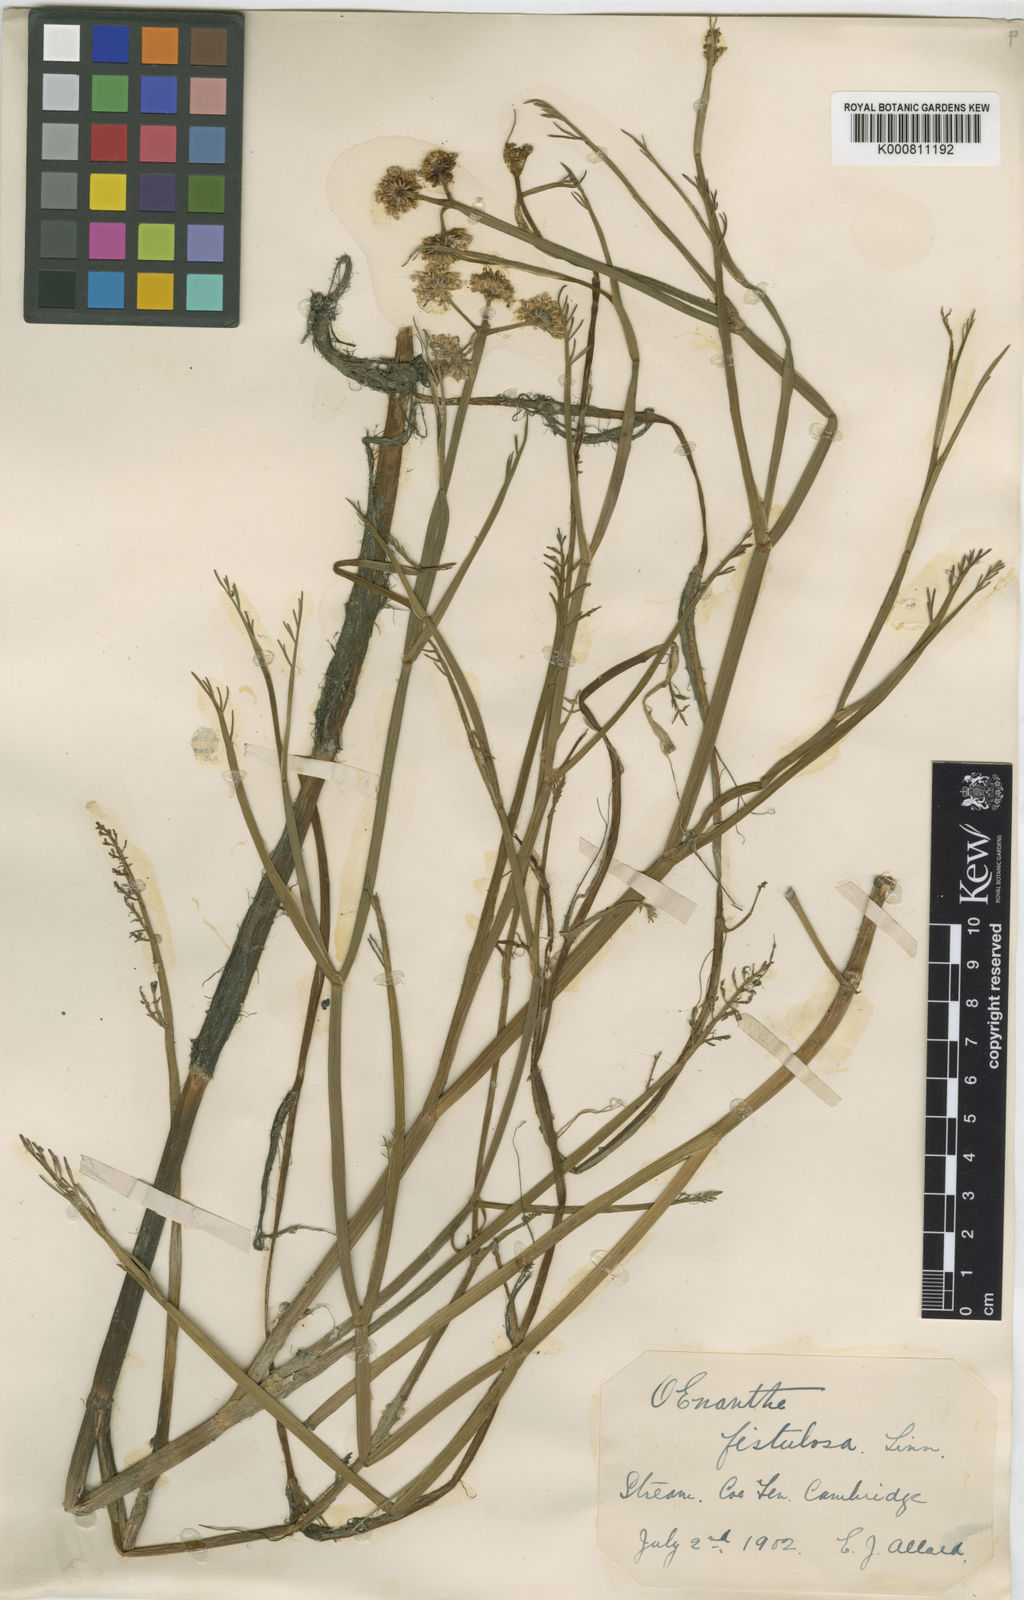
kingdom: Plantae
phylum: Tracheophyta
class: Magnoliopsida
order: Apiales
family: Apiaceae
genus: Oenanthe
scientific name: Oenanthe fistulosa
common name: Tubular water-dropwort
